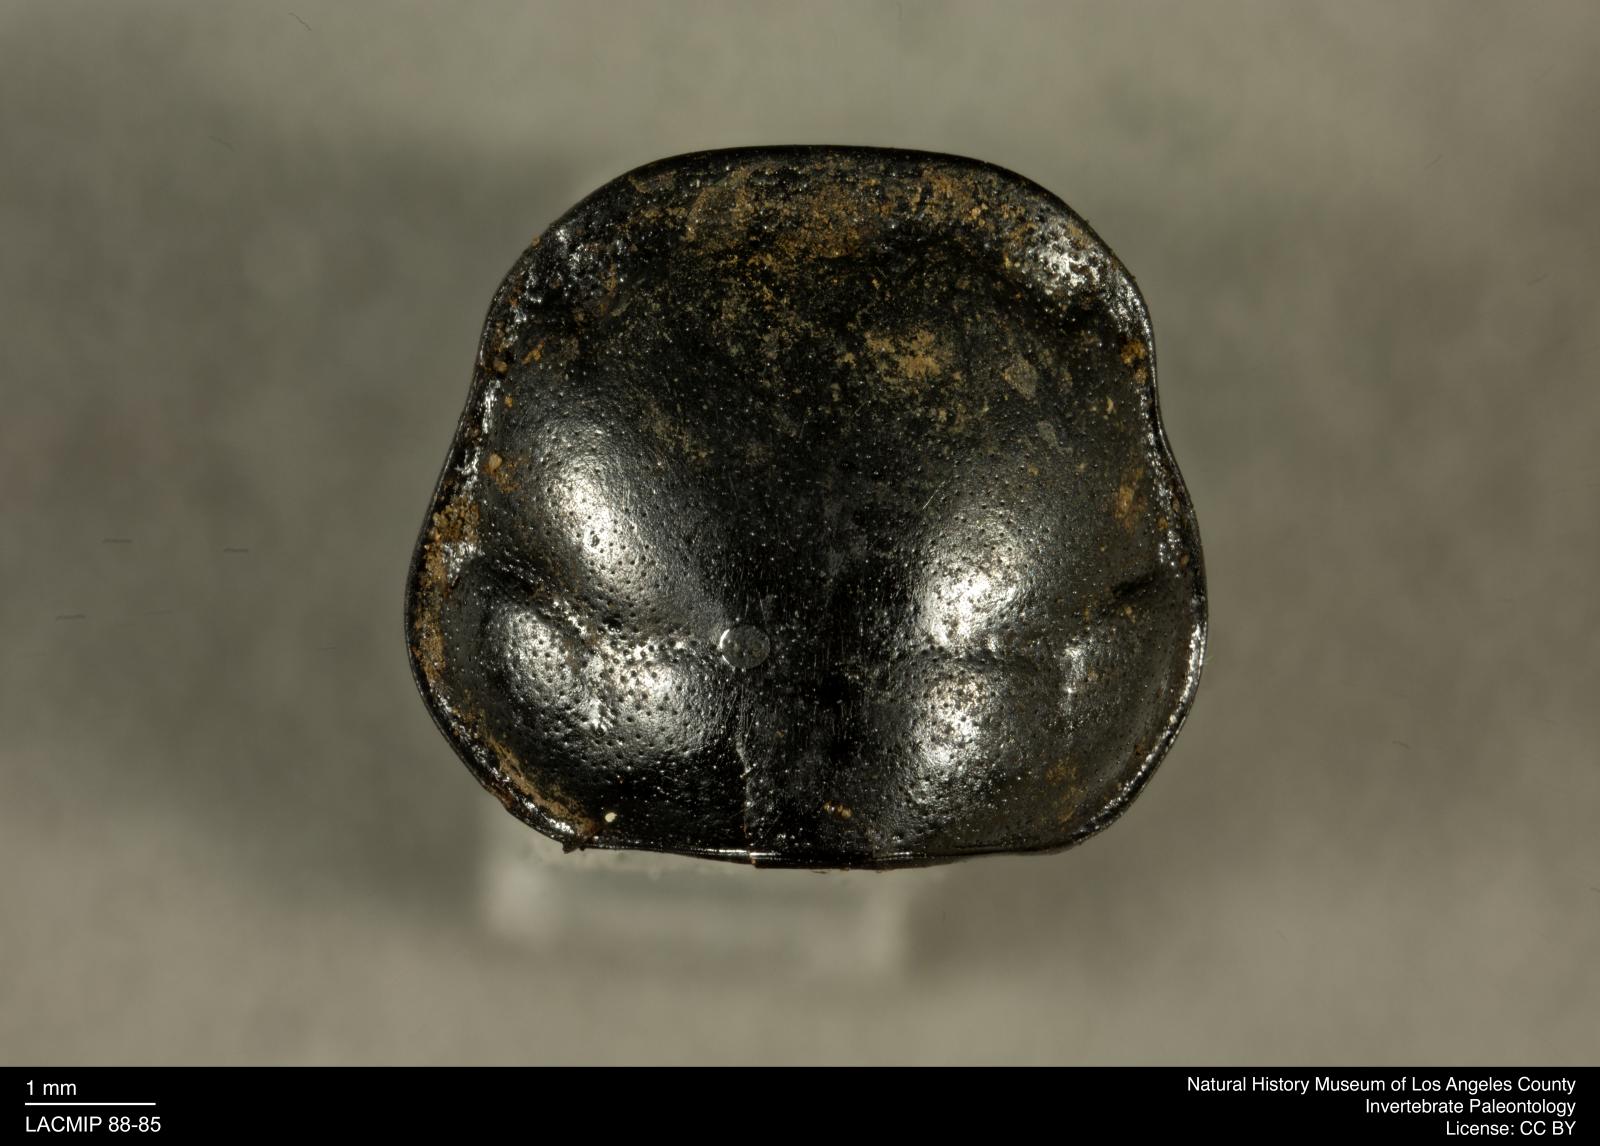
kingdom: Animalia
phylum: Arthropoda
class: Insecta
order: Coleoptera
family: Staphylinidae
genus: Nicrophorus
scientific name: Nicrophorus marginatus
